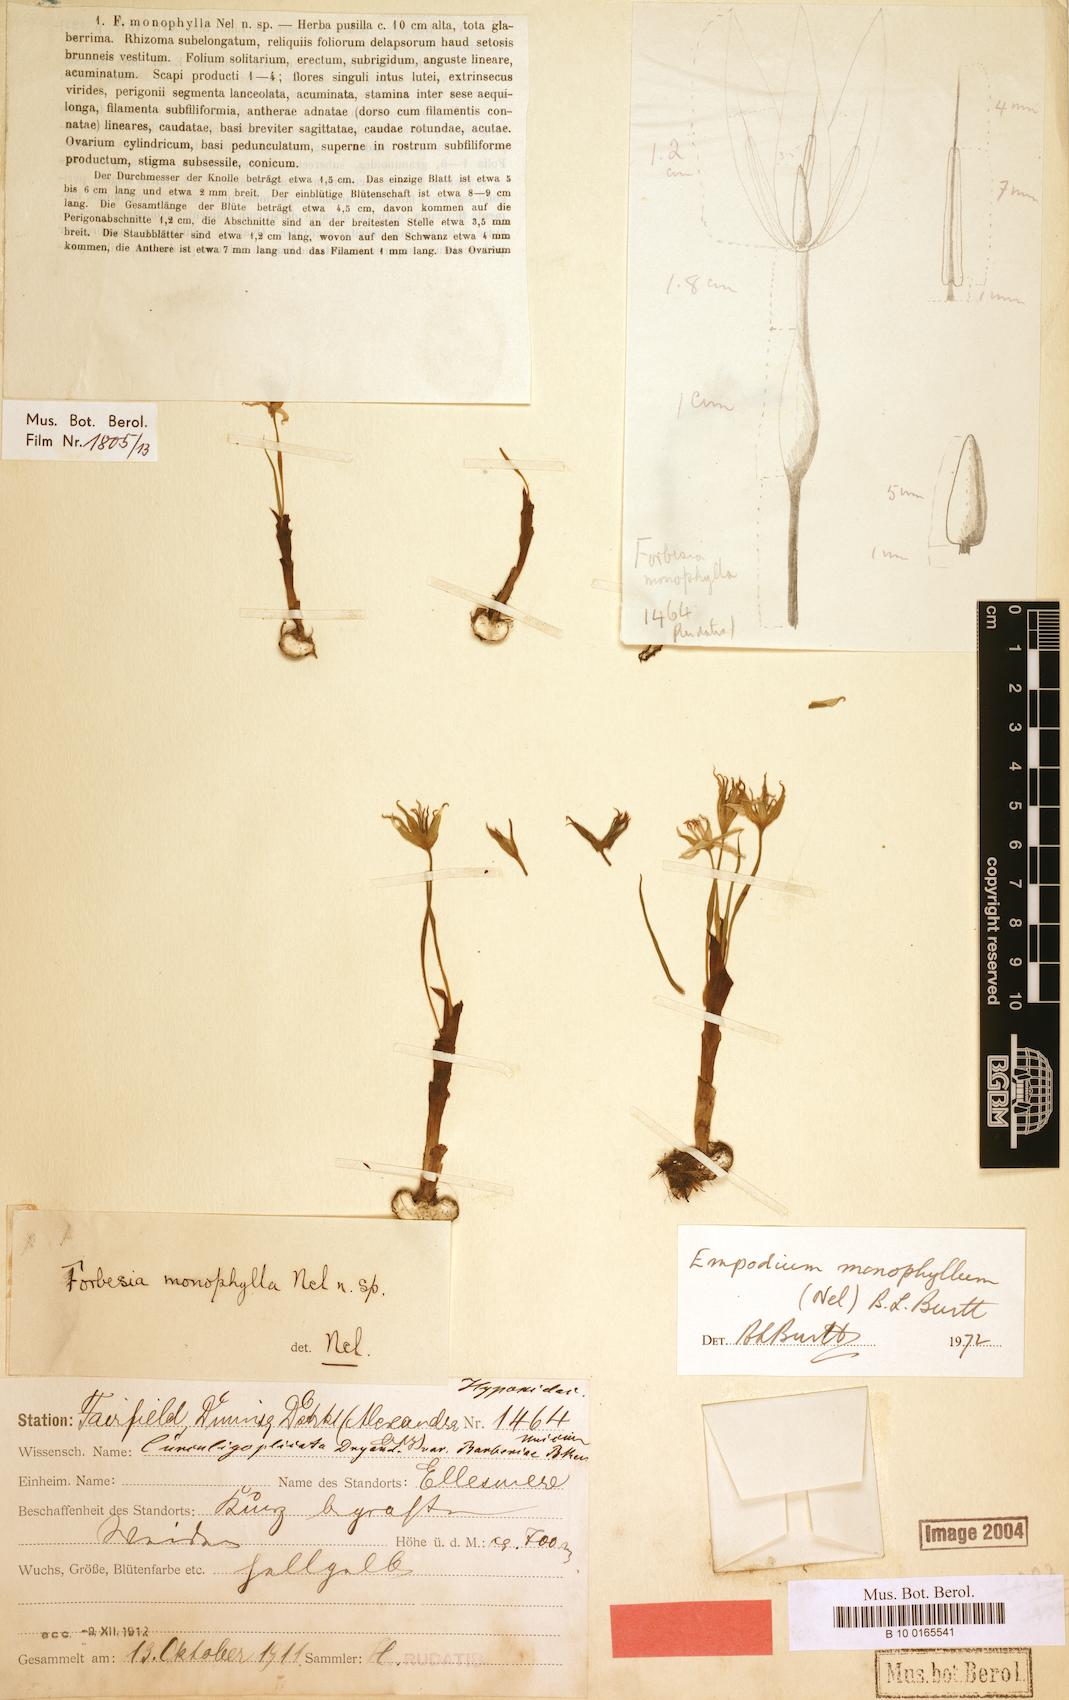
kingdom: Plantae
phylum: Tracheophyta
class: Liliopsida
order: Asparagales
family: Hypoxidaceae
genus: Empodium
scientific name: Empodium monophyllum
